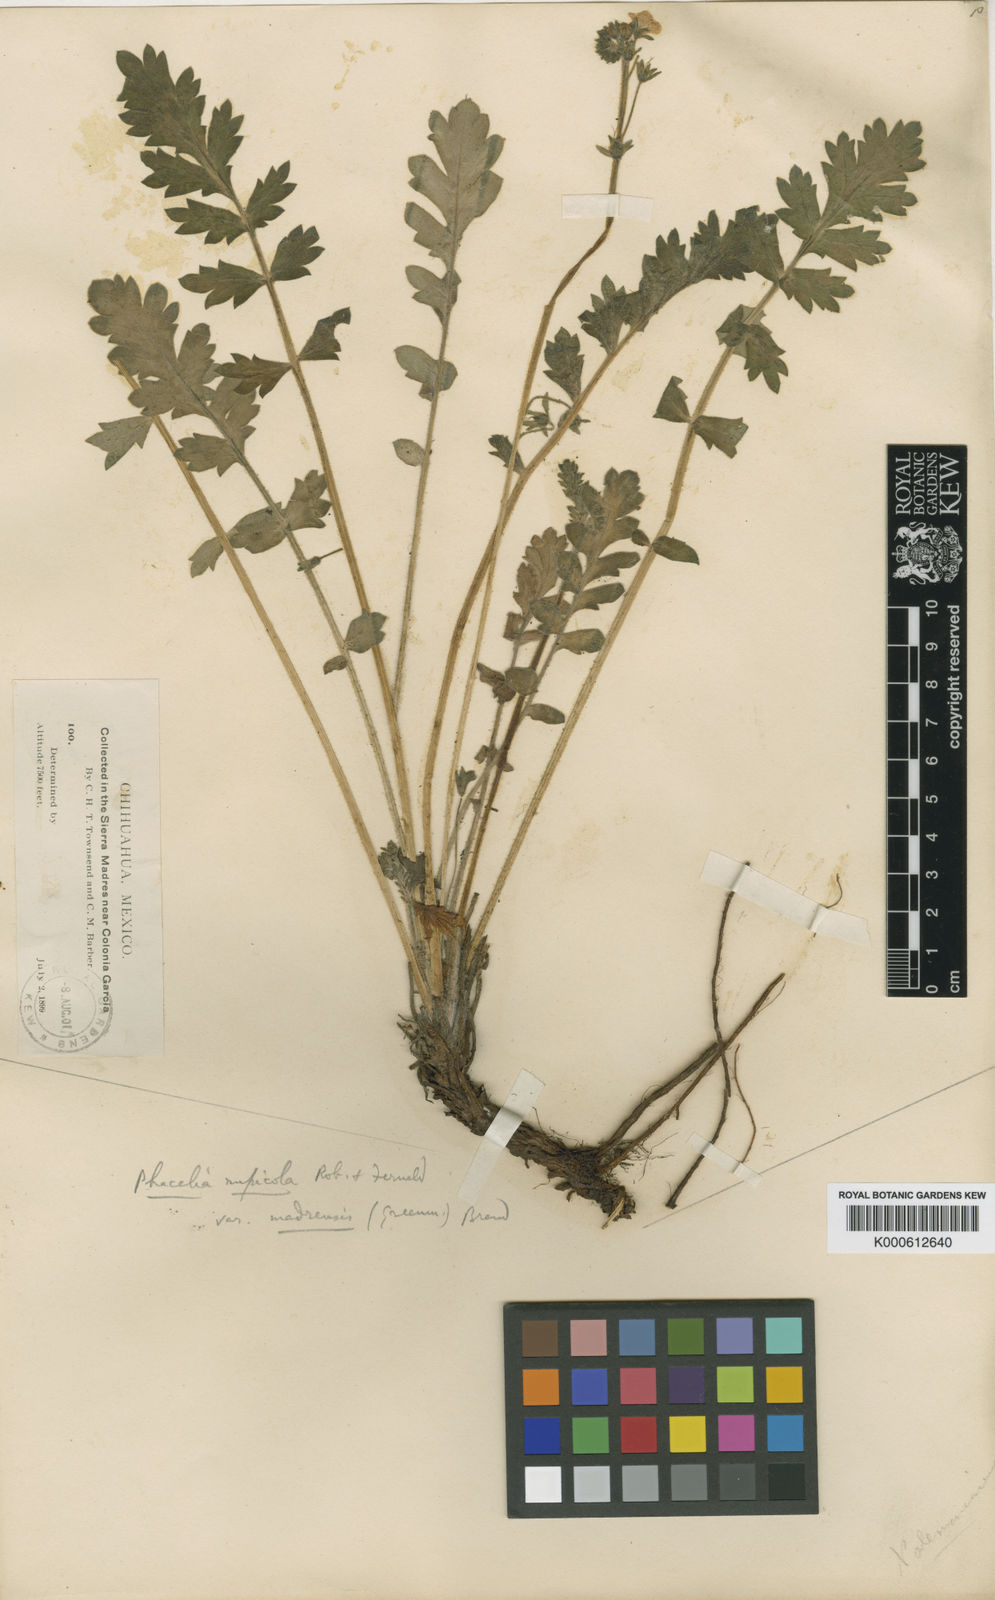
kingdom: Plantae
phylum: Tracheophyta
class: Magnoliopsida
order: Boraginales
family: Hydrophyllaceae
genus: Phacelia
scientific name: Phacelia platycarpa
